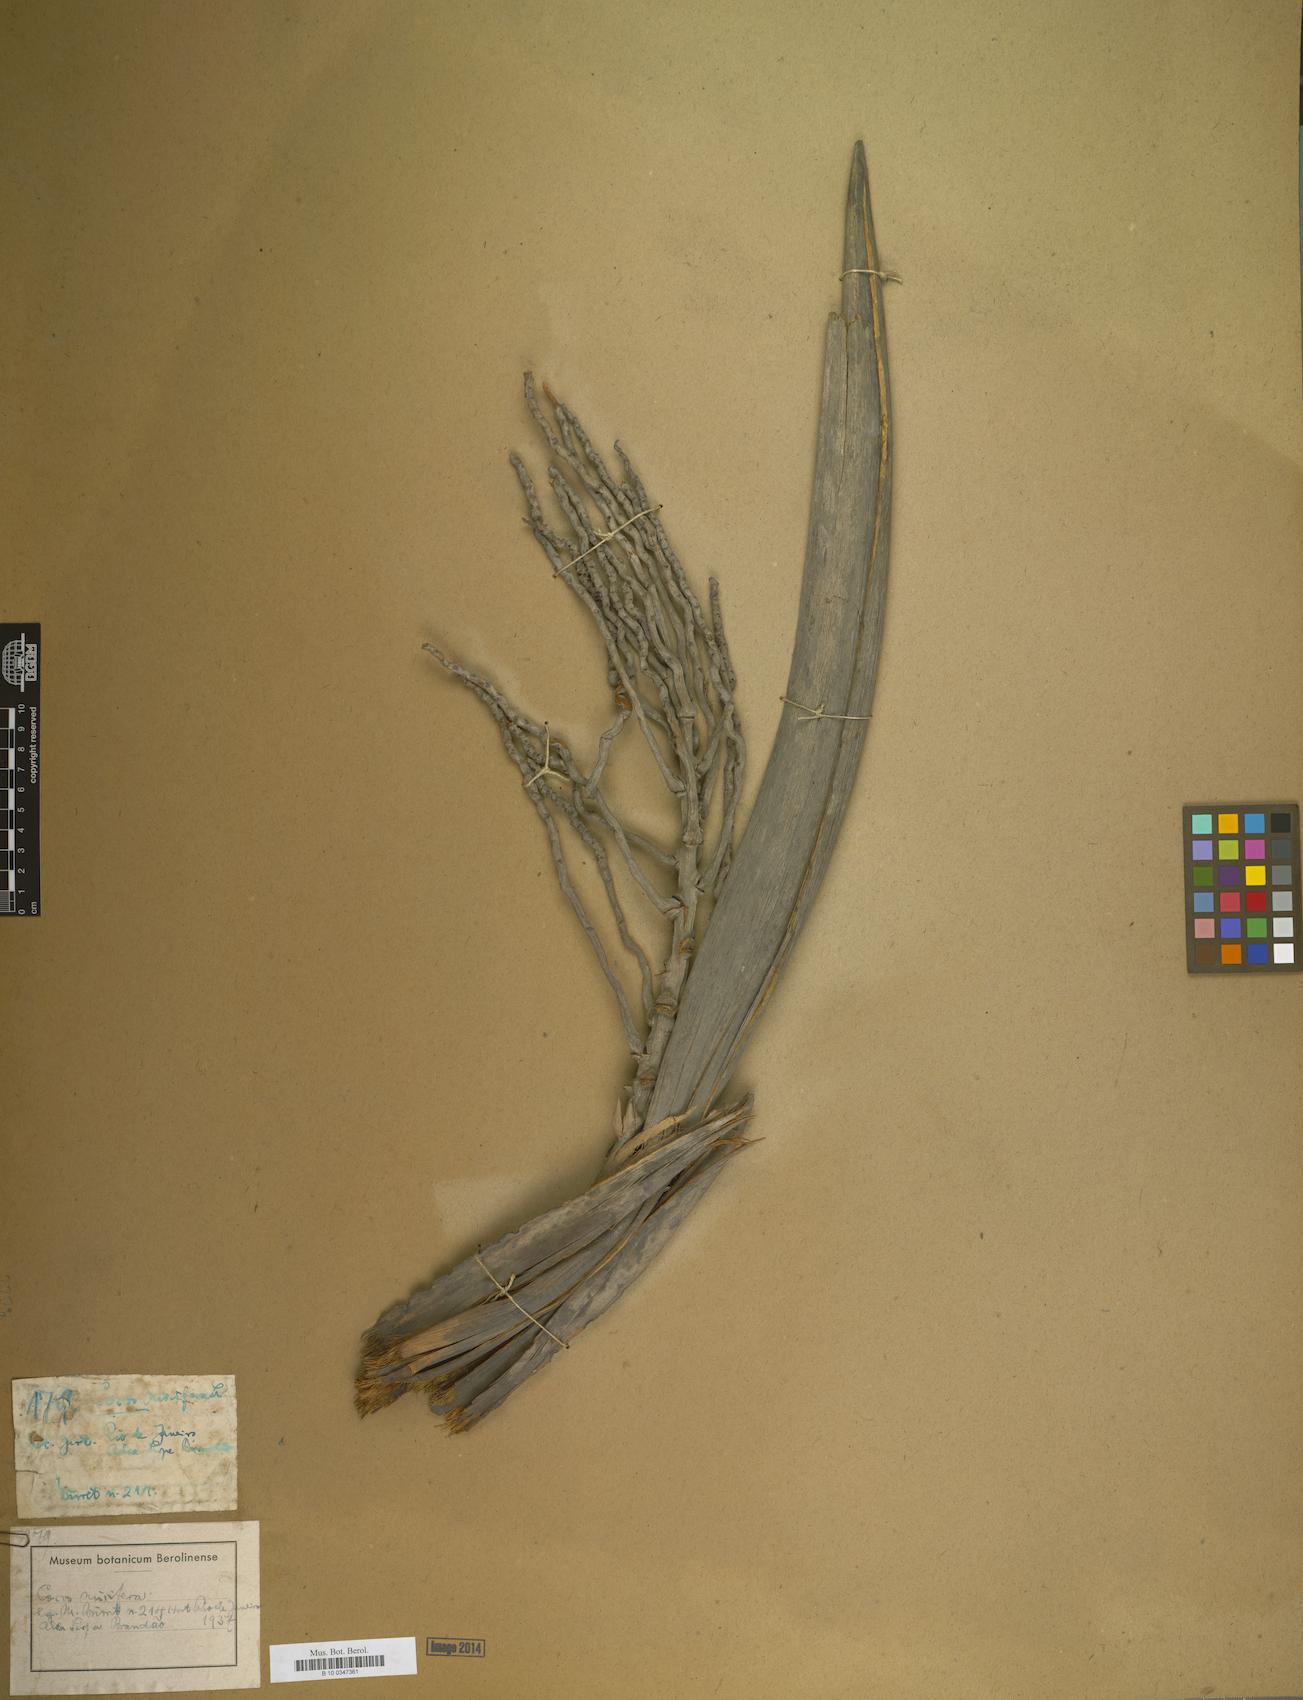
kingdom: Plantae
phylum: Tracheophyta
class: Liliopsida
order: Arecales
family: Arecaceae
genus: Cocos
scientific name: Cocos nucifera
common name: Coconut palm
